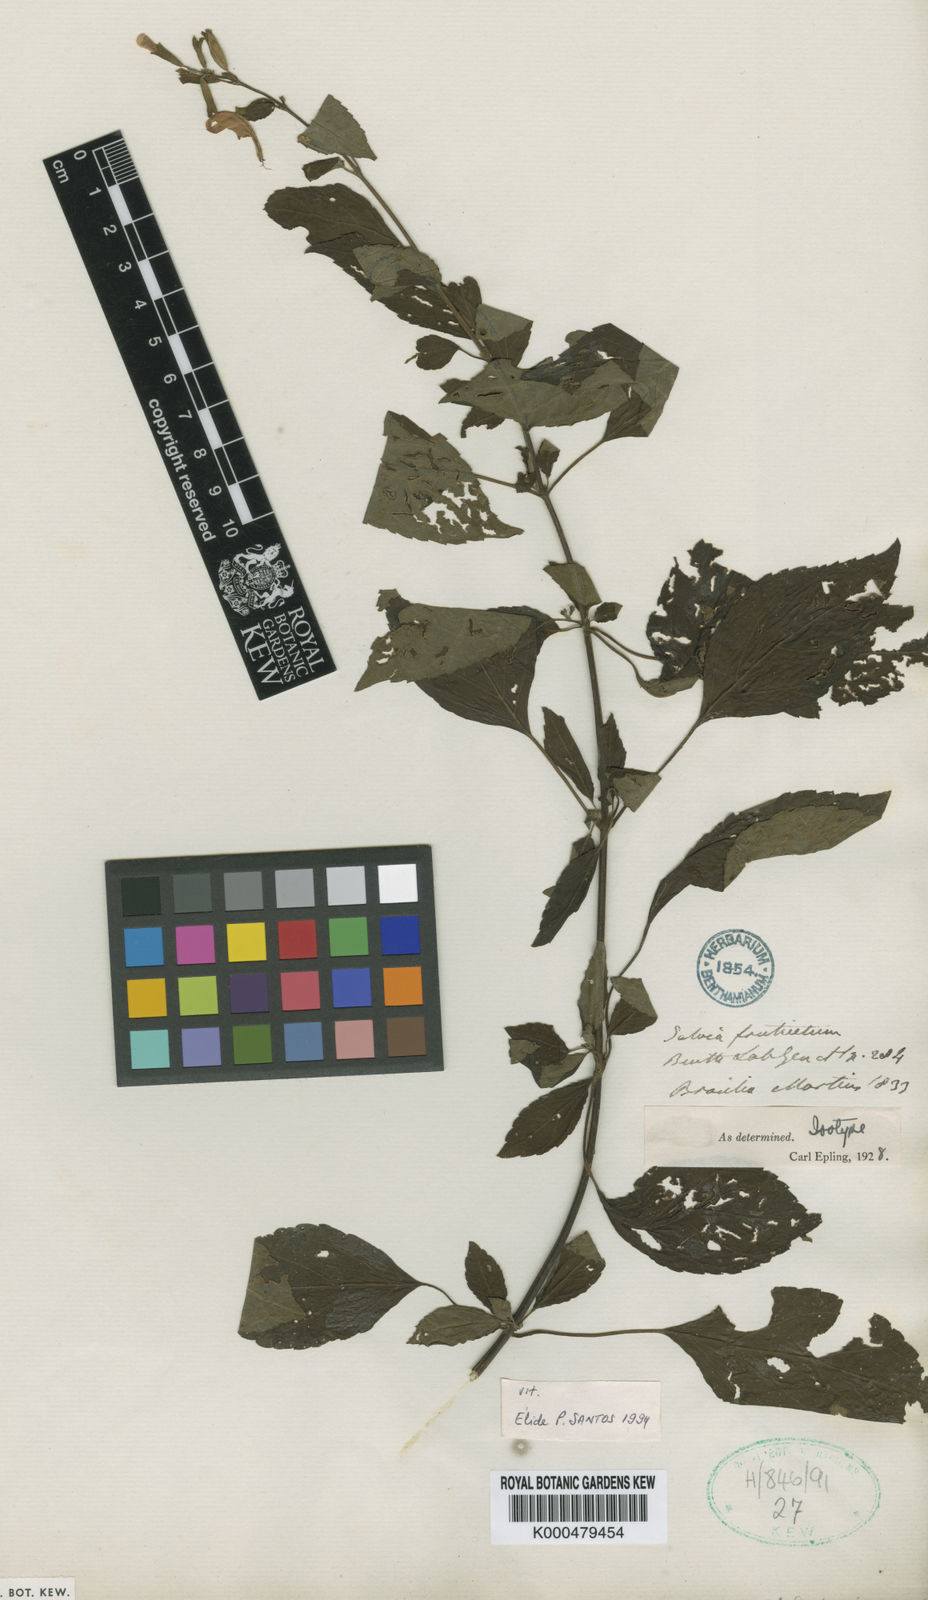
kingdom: Plantae
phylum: Tracheophyta
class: Magnoliopsida
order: Lamiales
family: Lamiaceae
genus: Salvia
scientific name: Salvia fruticetorum
